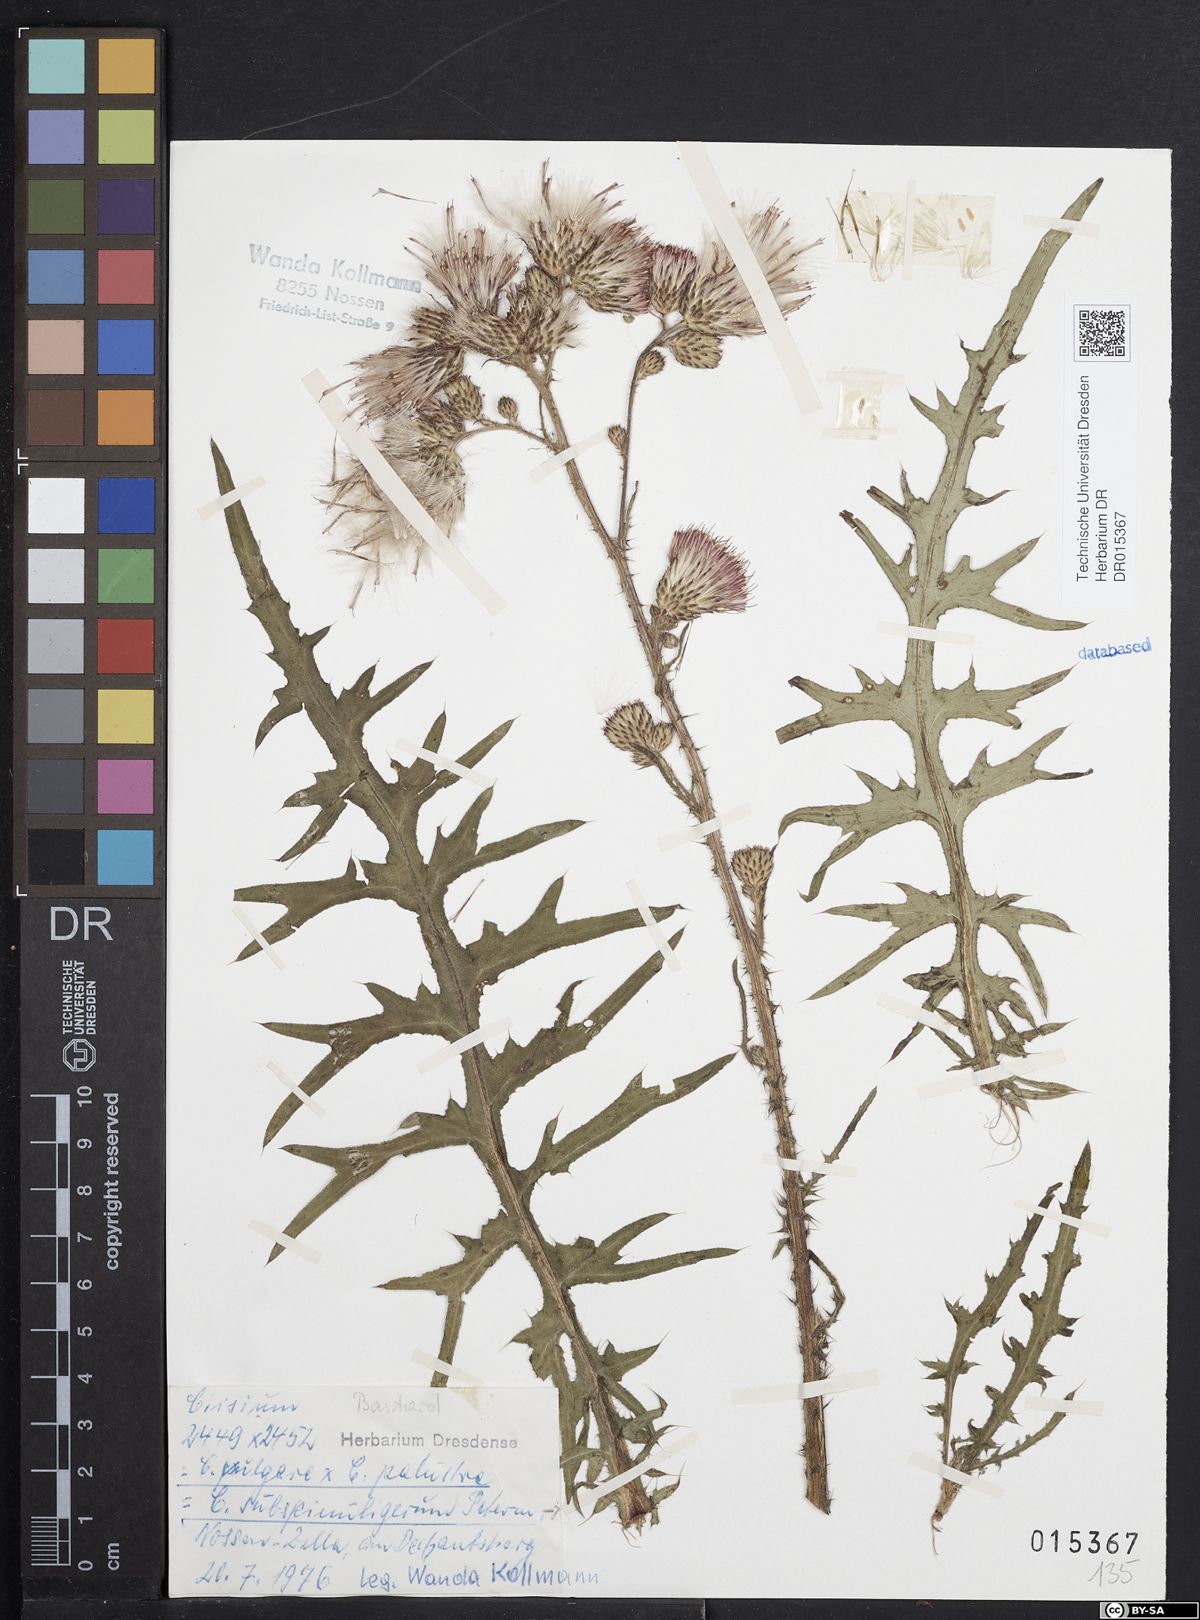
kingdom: Plantae
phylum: Tracheophyta
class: Magnoliopsida
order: Asterales
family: Asteraceae
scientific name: Asteraceae
